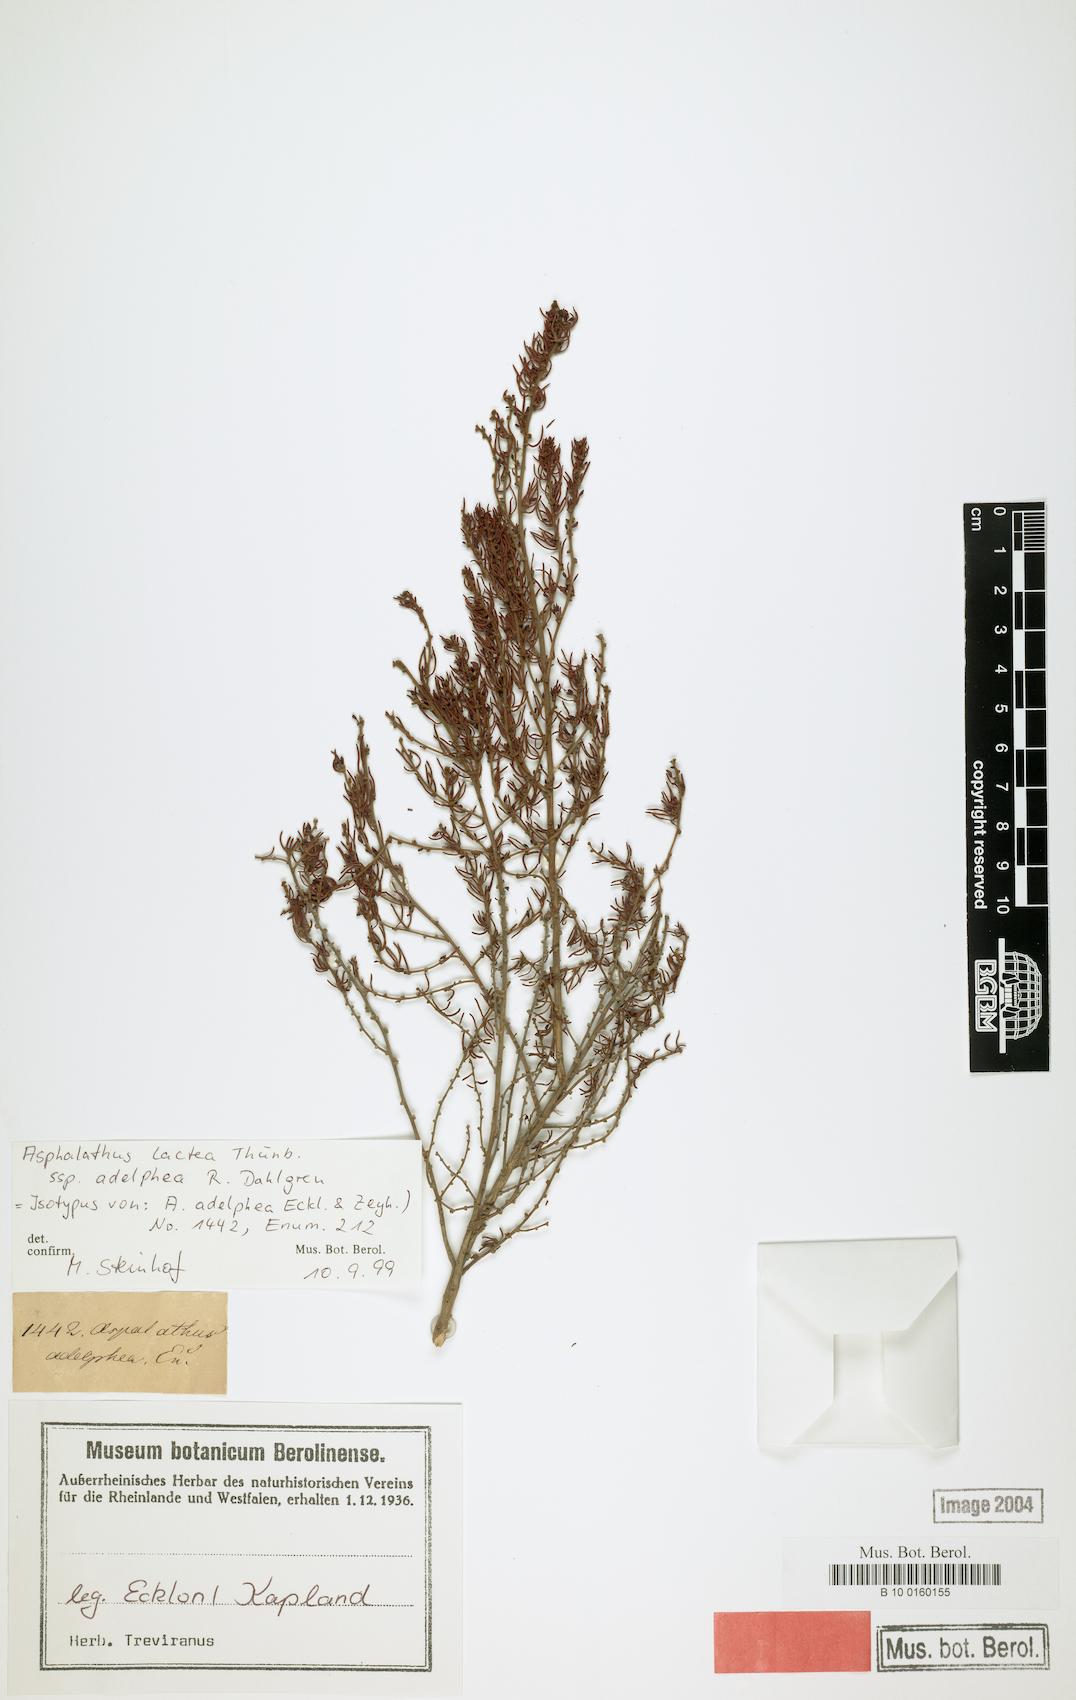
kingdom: Plantae
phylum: Tracheophyta
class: Magnoliopsida
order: Fabales
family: Fabaceae
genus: Aspalathus
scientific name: Aspalathus lactea
